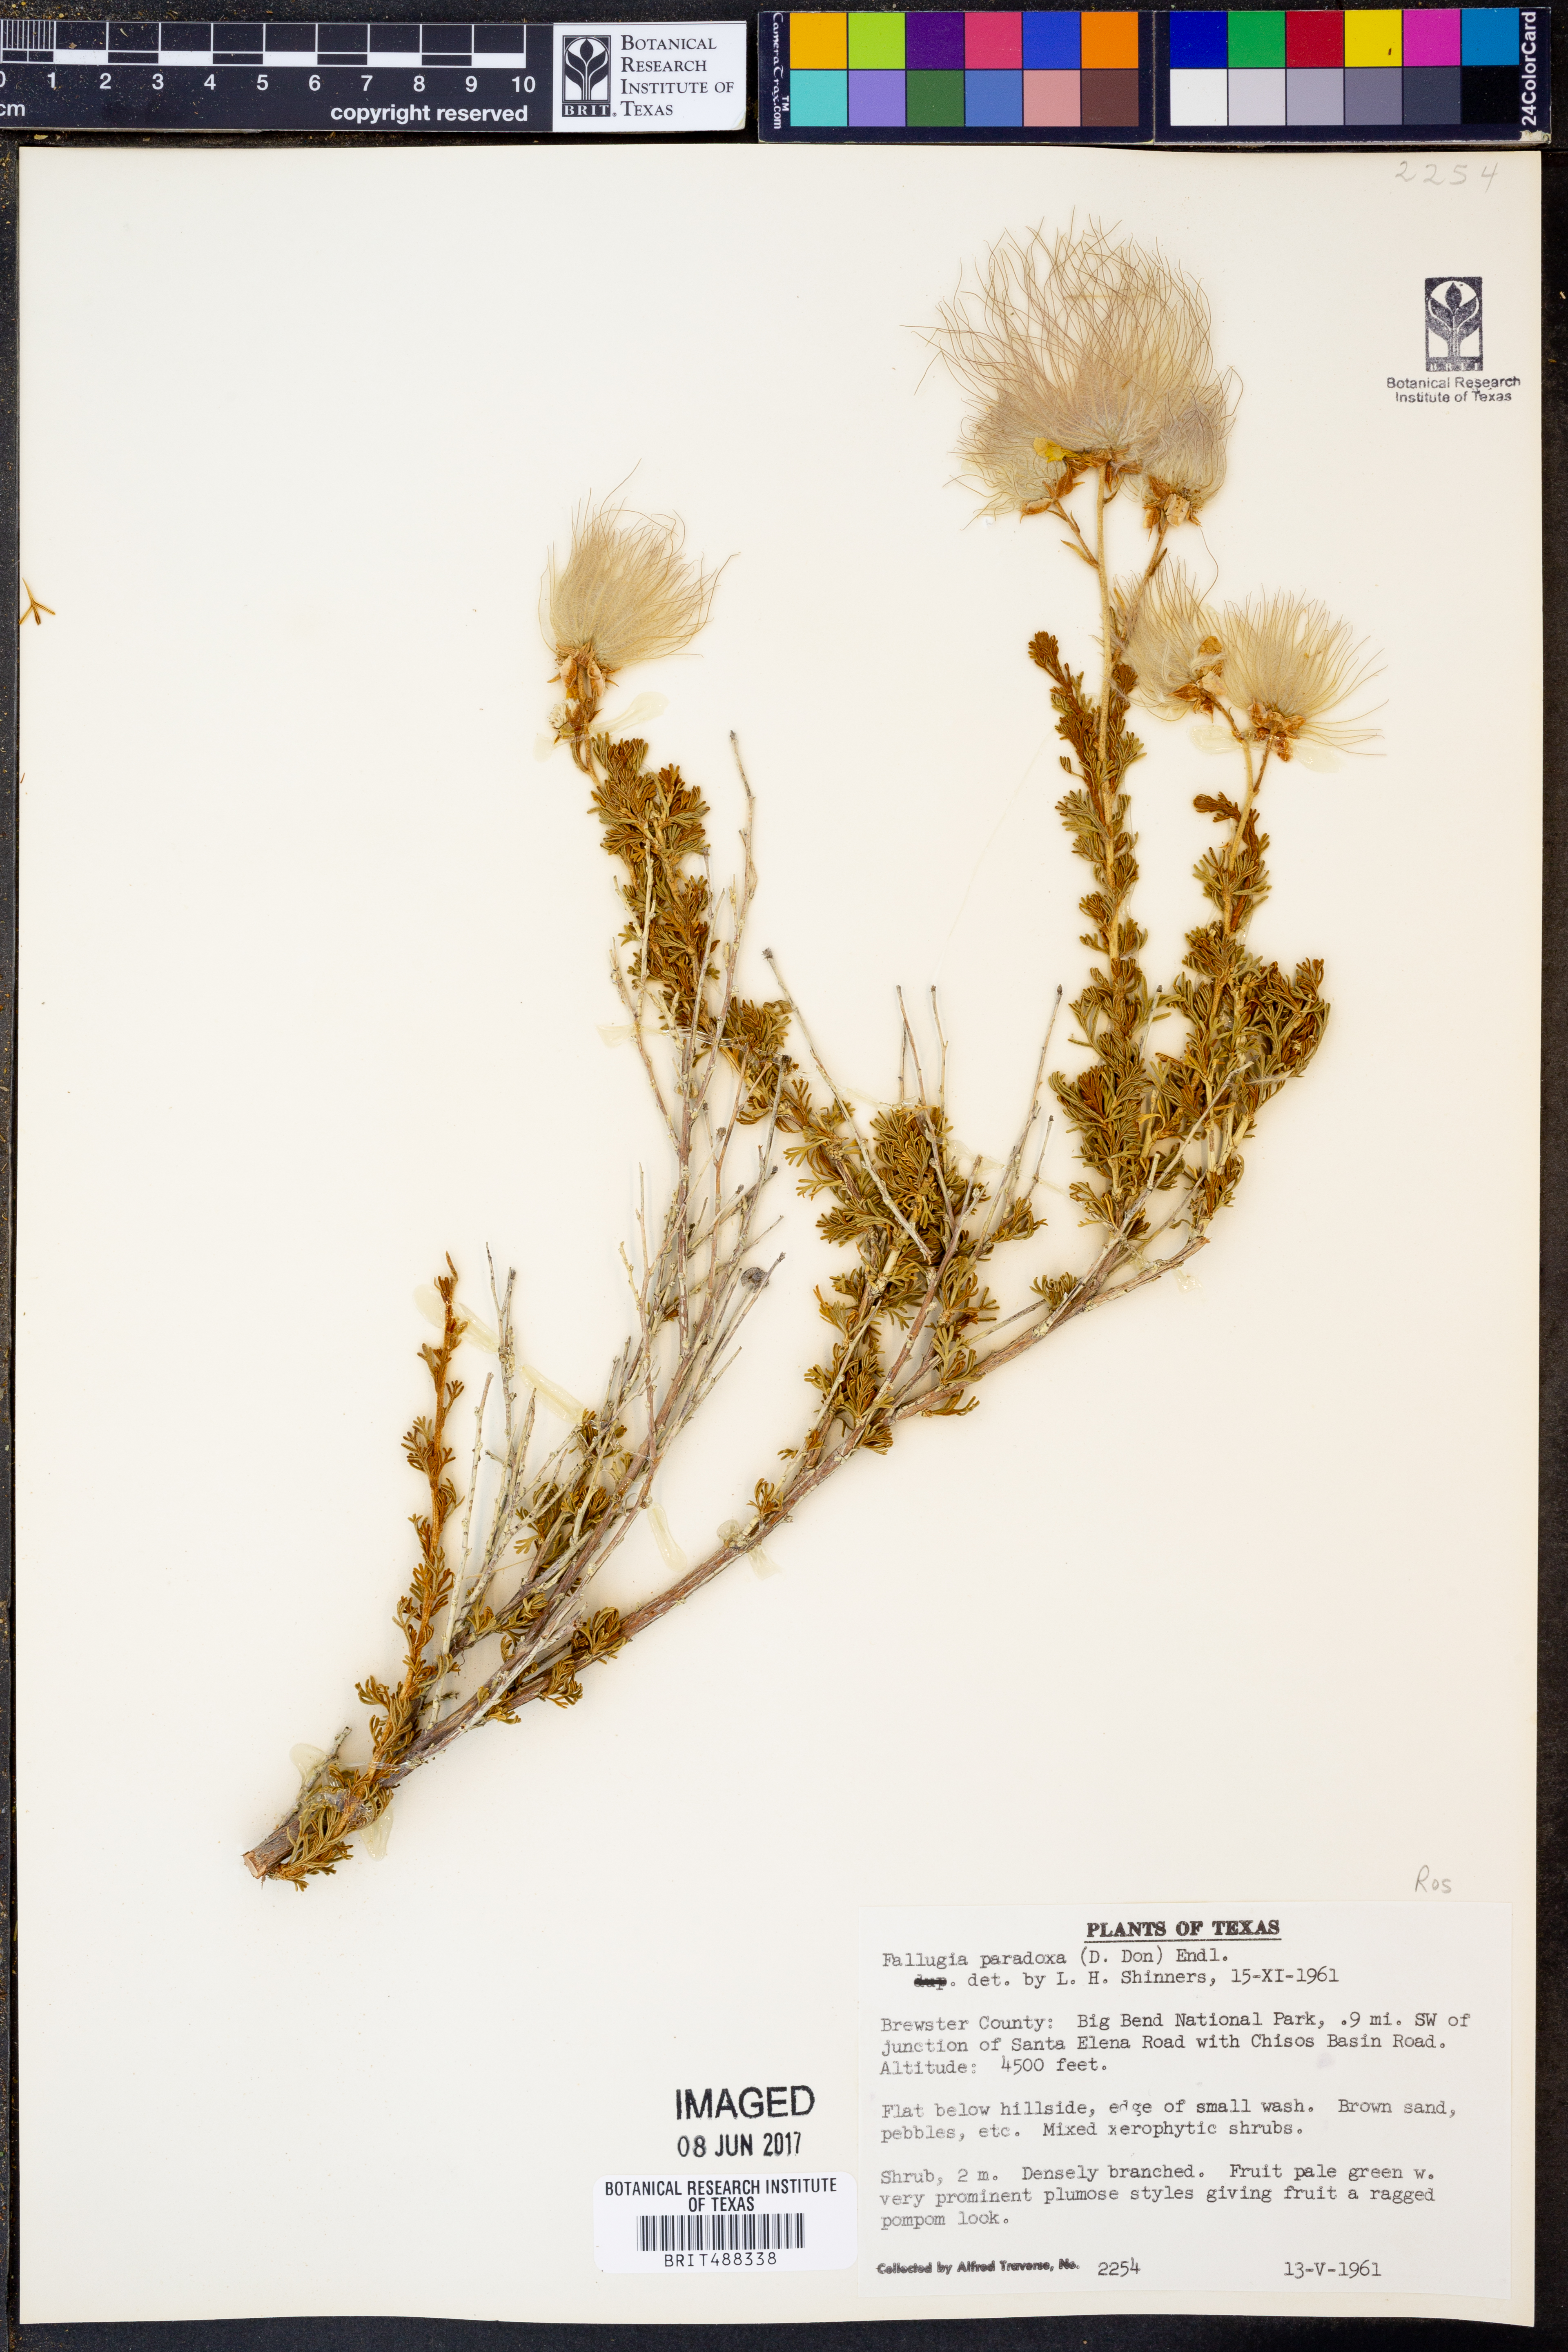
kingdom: Plantae
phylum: Tracheophyta
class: Magnoliopsida
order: Rosales
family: Rosaceae
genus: Fallugia
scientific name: Fallugia paradoxa
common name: Apache-plume
